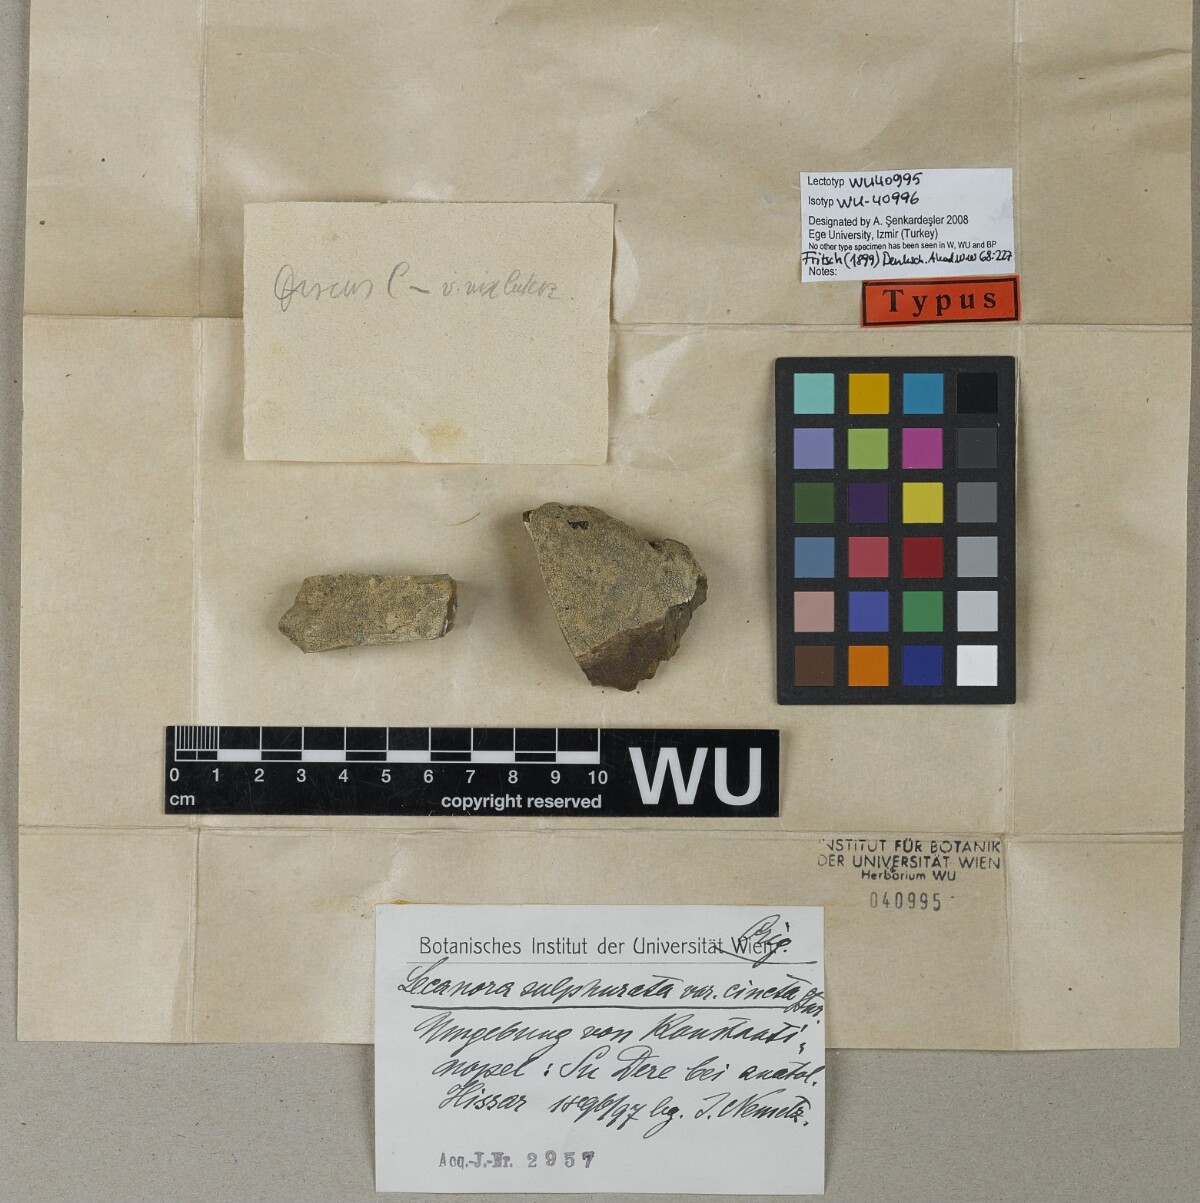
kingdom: Fungi
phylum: Ascomycota
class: Lecanoromycetes
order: Lecanorales
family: Lecanoraceae
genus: Lecanora
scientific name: Lecanora sulphurata
